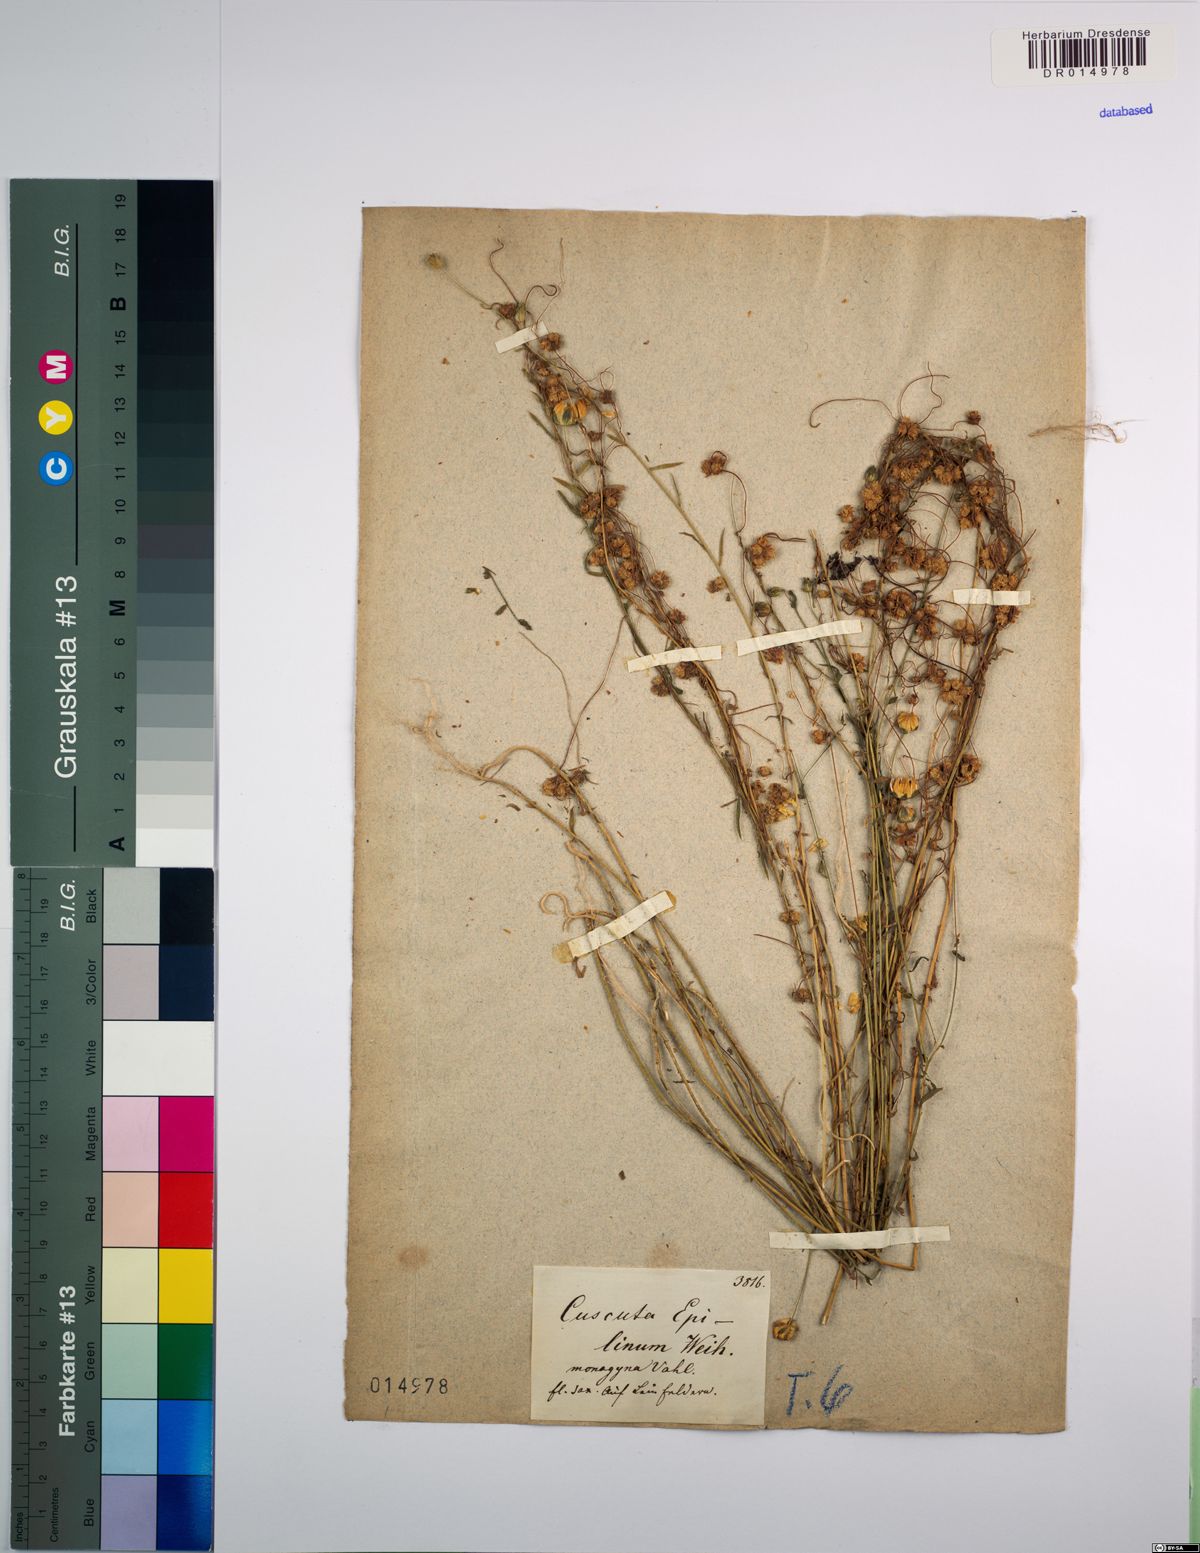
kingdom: Plantae
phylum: Tracheophyta
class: Magnoliopsida
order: Solanales
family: Convolvulaceae
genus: Cuscuta
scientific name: Cuscuta epilinum
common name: Flax dodder
